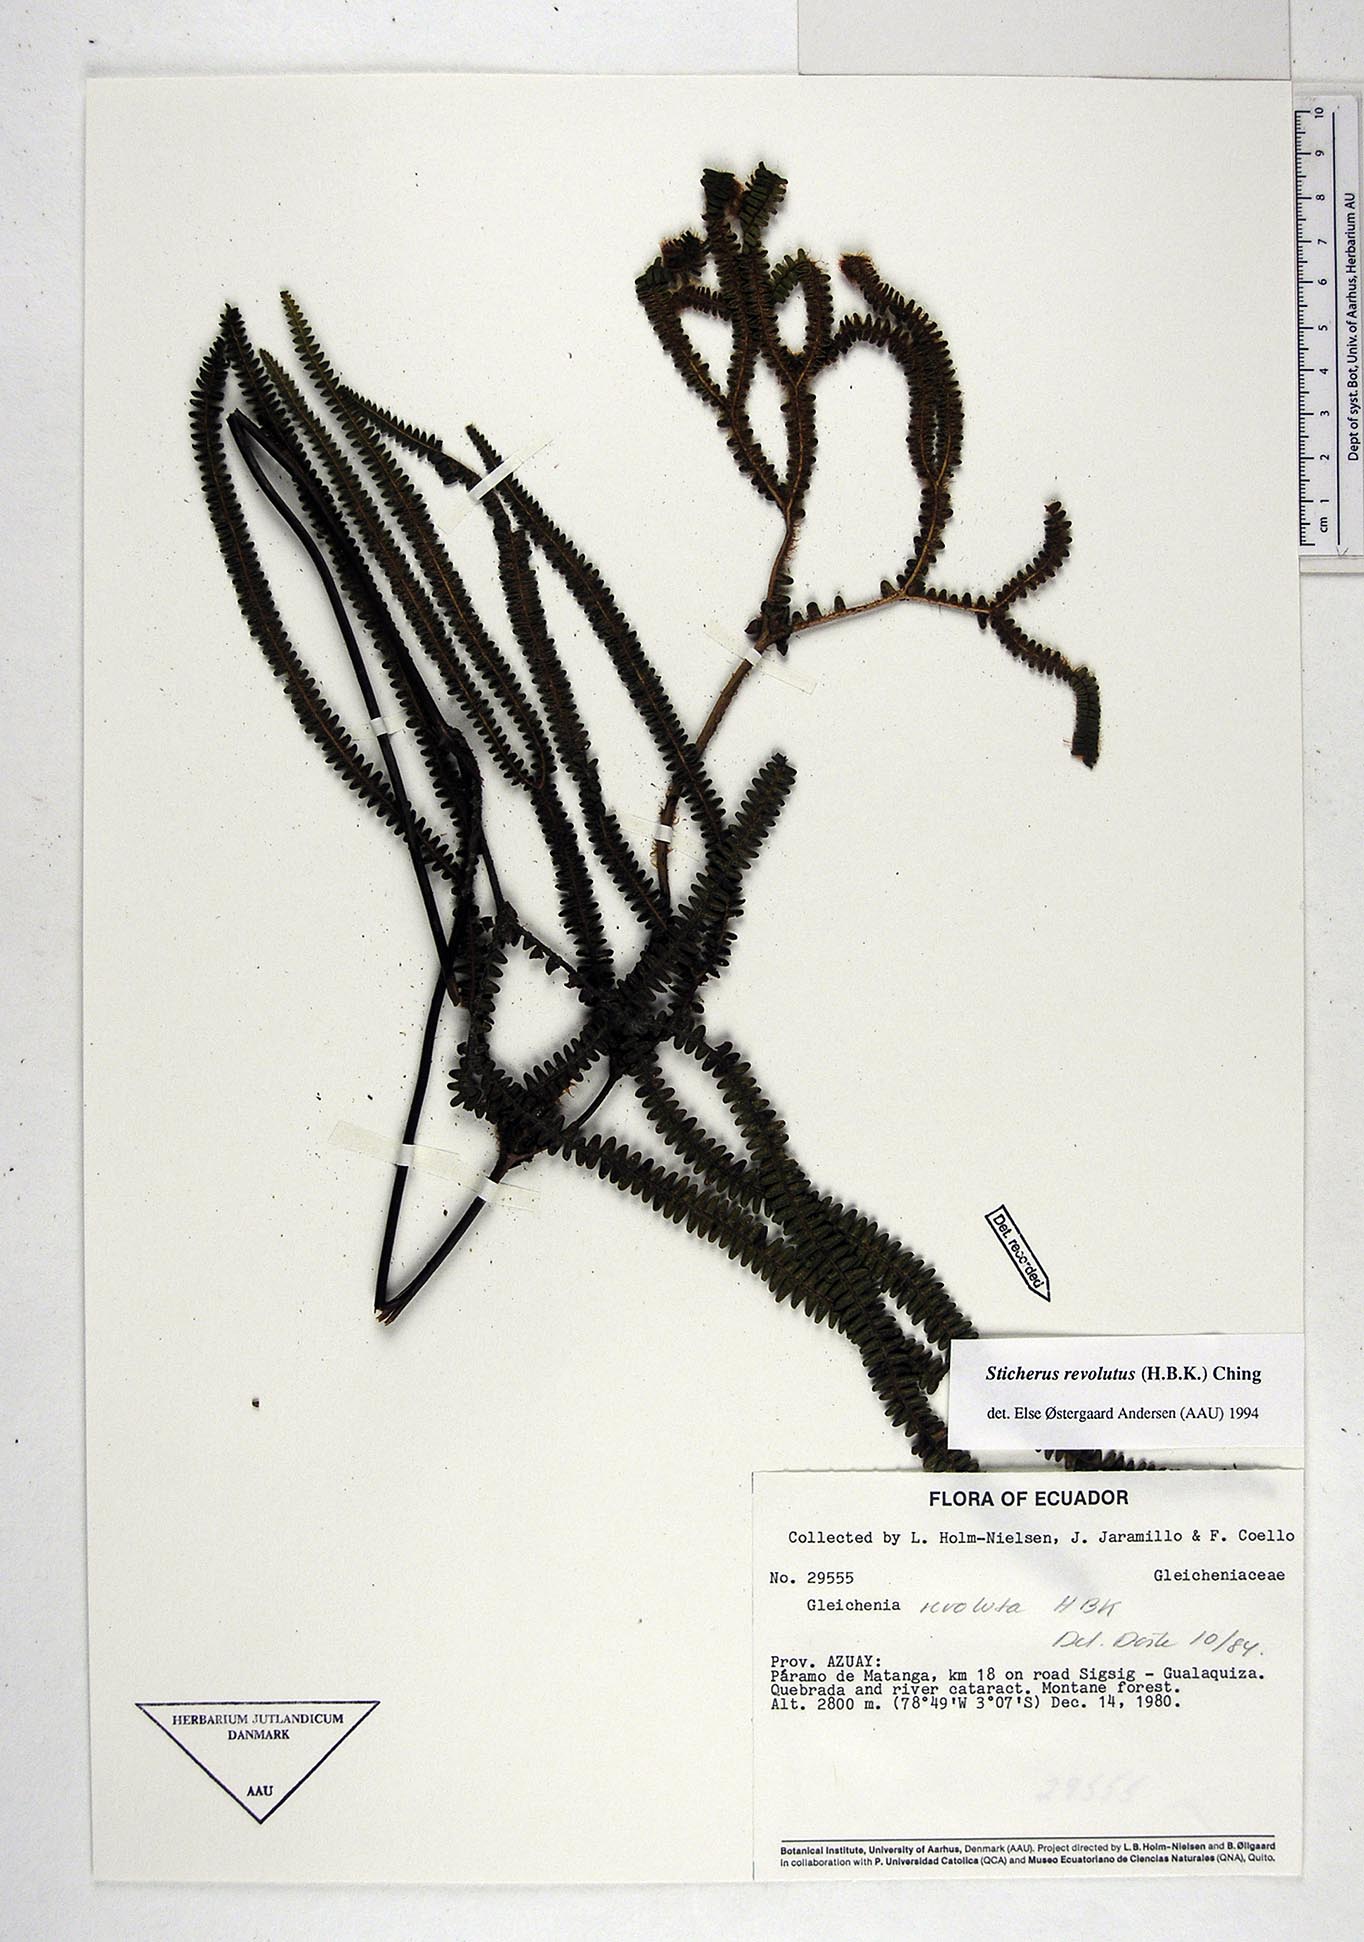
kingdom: Plantae
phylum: Tracheophyta
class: Polypodiopsida
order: Gleicheniales
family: Gleicheniaceae
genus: Sticherus
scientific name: Sticherus revolutus
